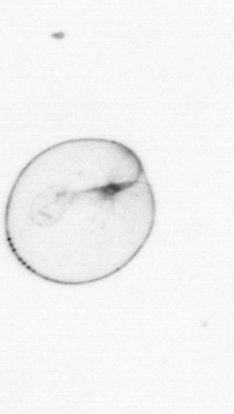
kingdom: Chromista
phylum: Myzozoa
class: Dinophyceae
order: Noctilucales
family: Noctilucaceae
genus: Noctiluca
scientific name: Noctiluca scintillans
